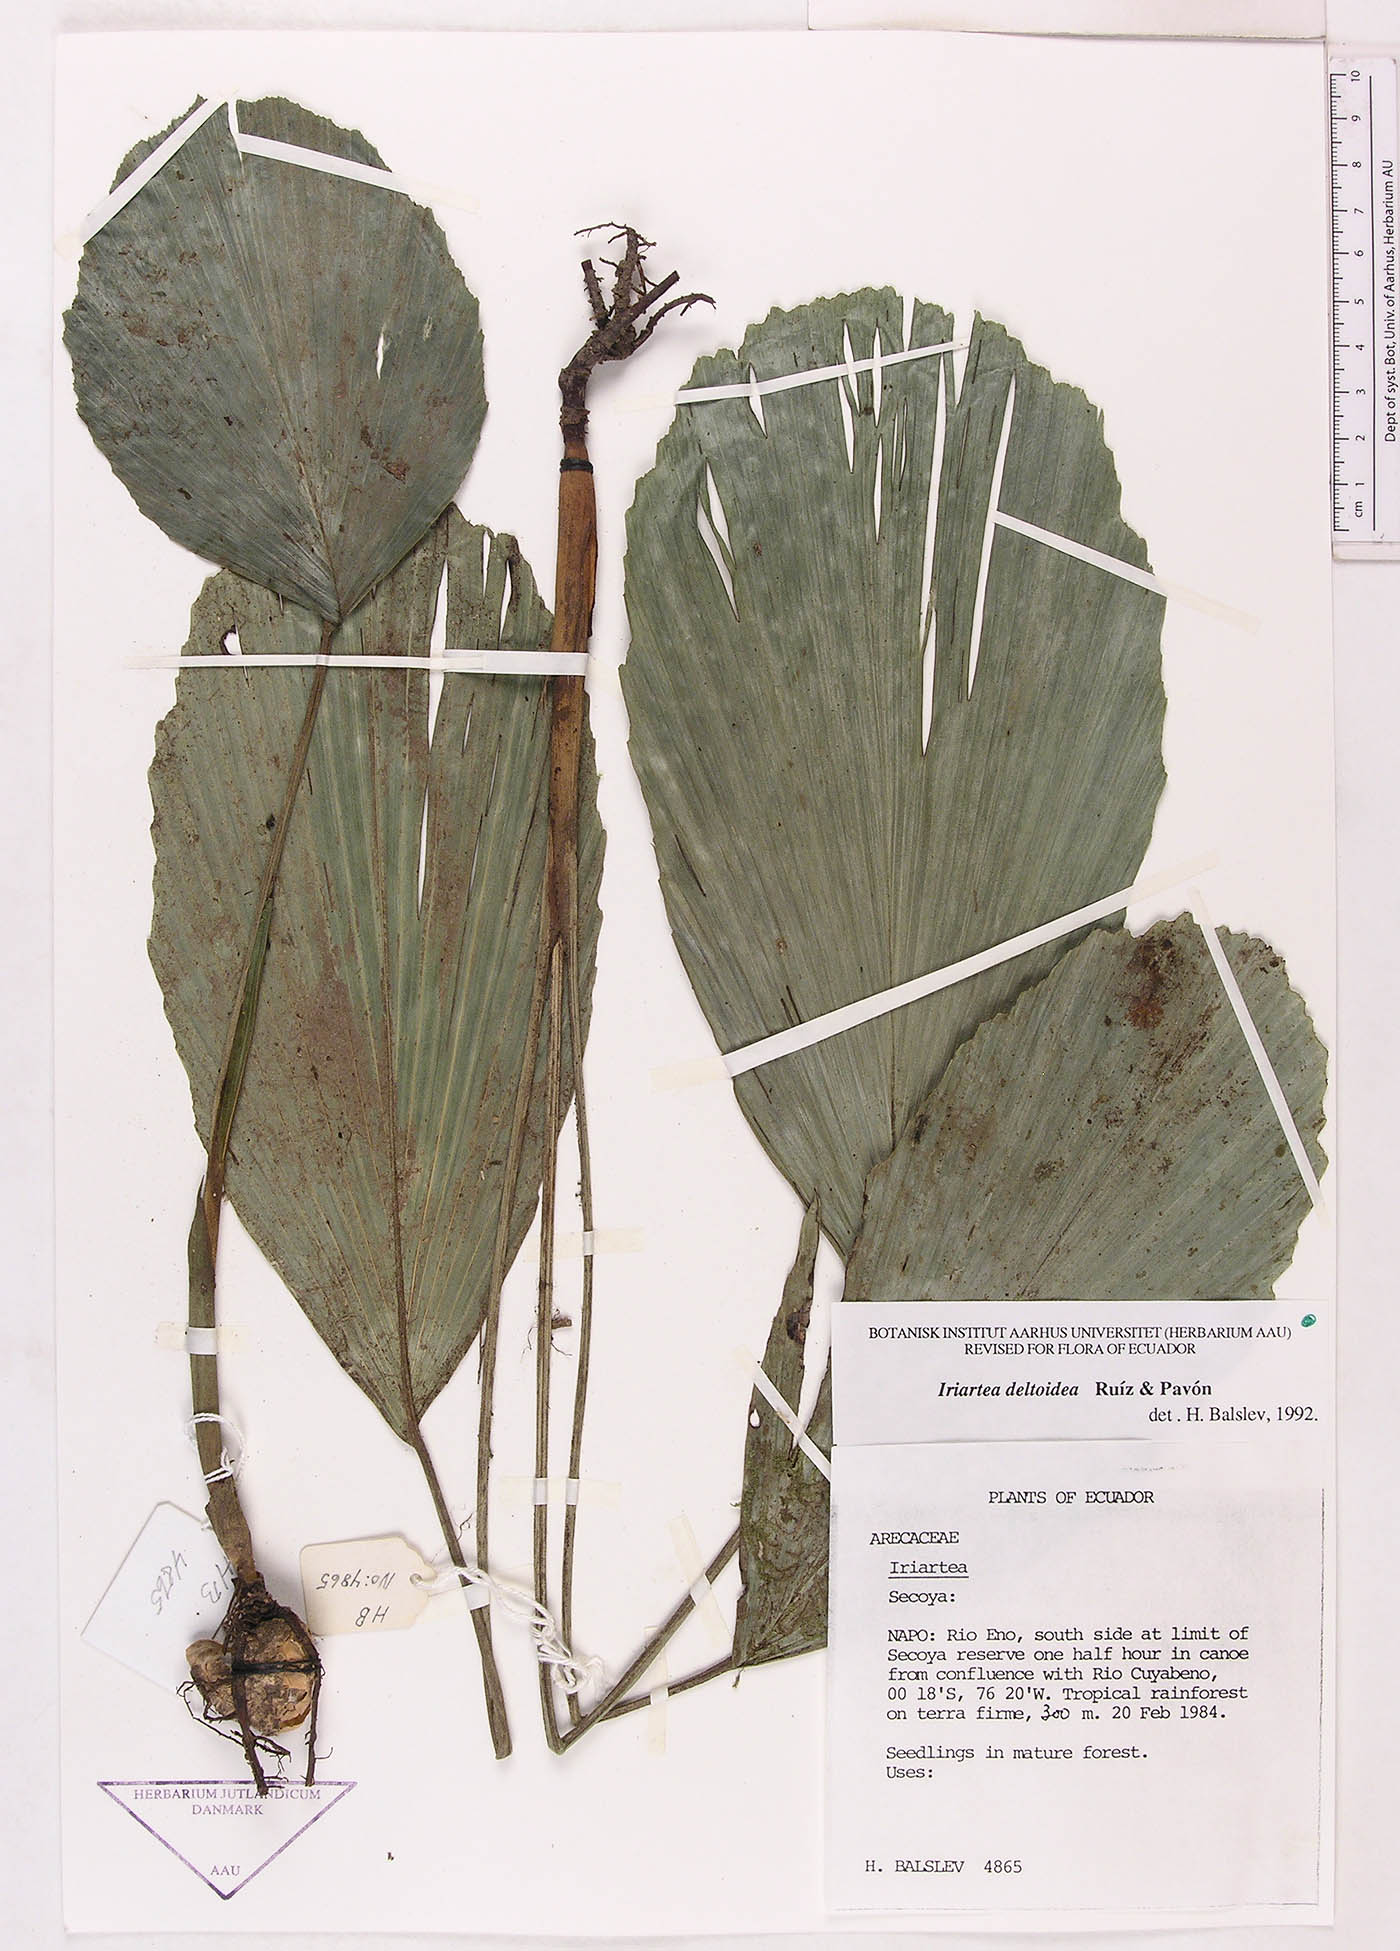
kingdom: Plantae
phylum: Tracheophyta
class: Liliopsida
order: Arecales
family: Arecaceae
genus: Iriartea
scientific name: Iriartea deltoidea
